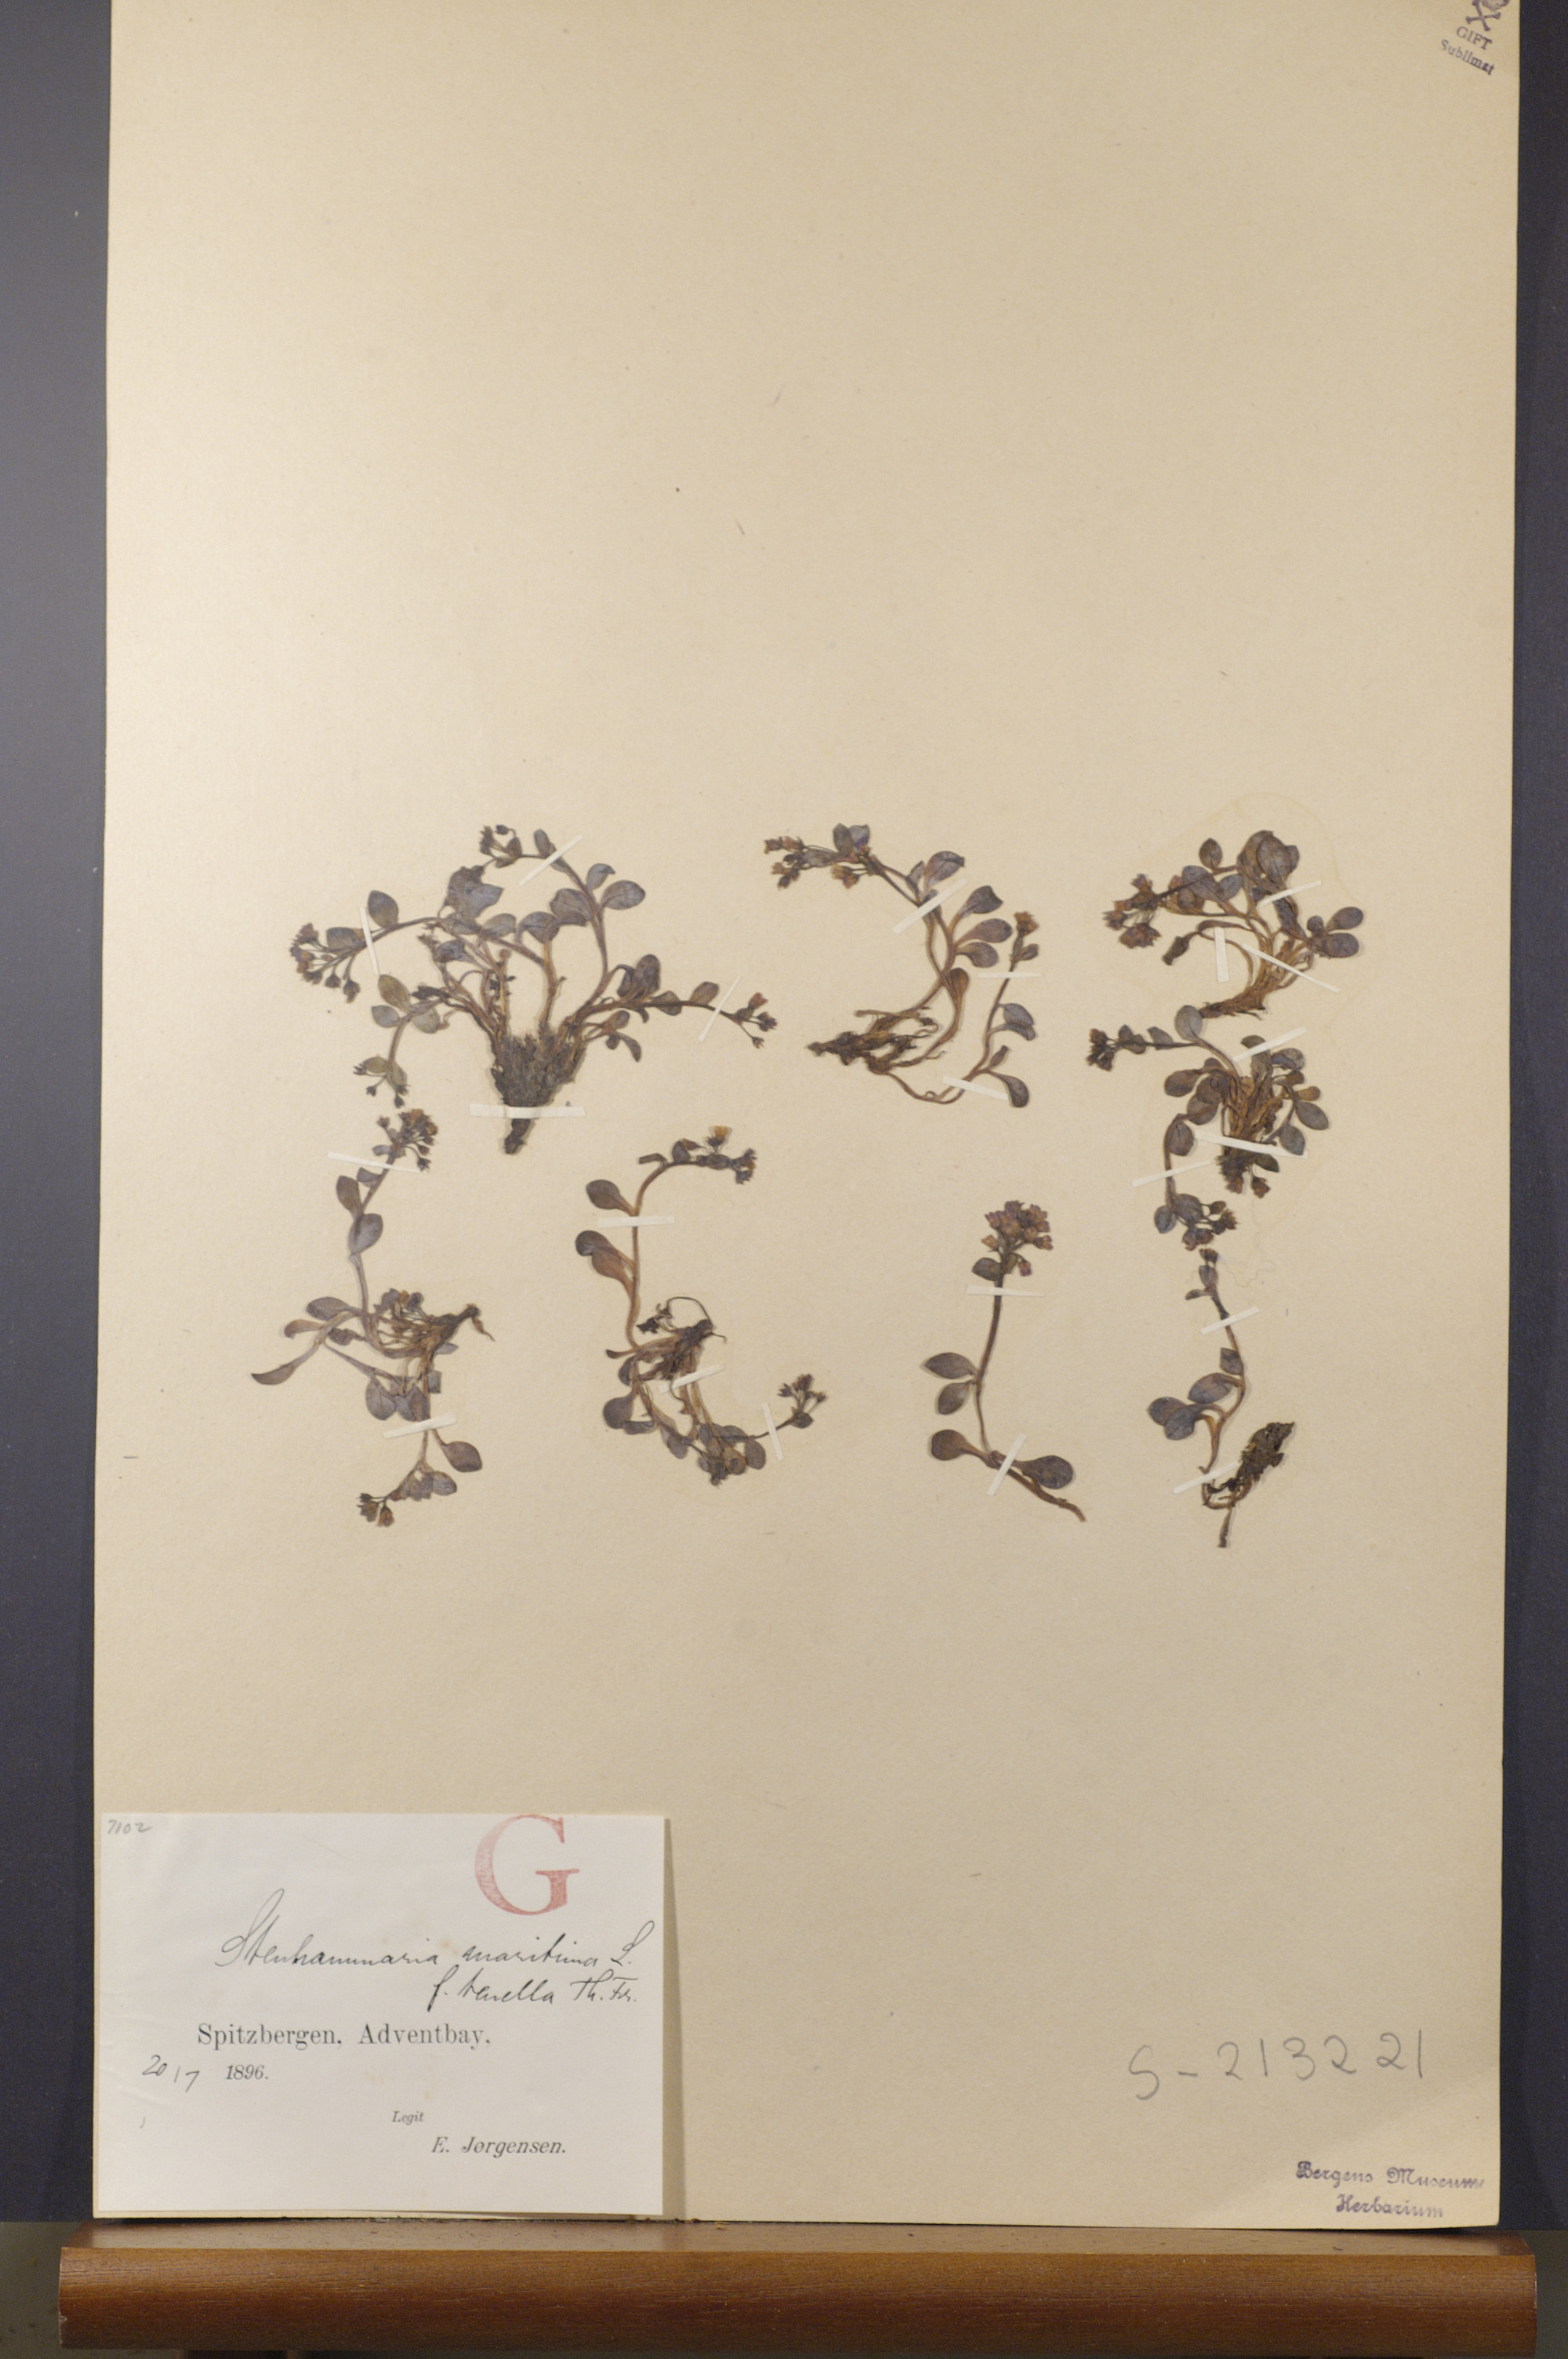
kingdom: Plantae
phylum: Tracheophyta
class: Magnoliopsida
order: Boraginales
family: Boraginaceae
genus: Mertensia
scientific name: Mertensia maritima
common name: Oysterplant
